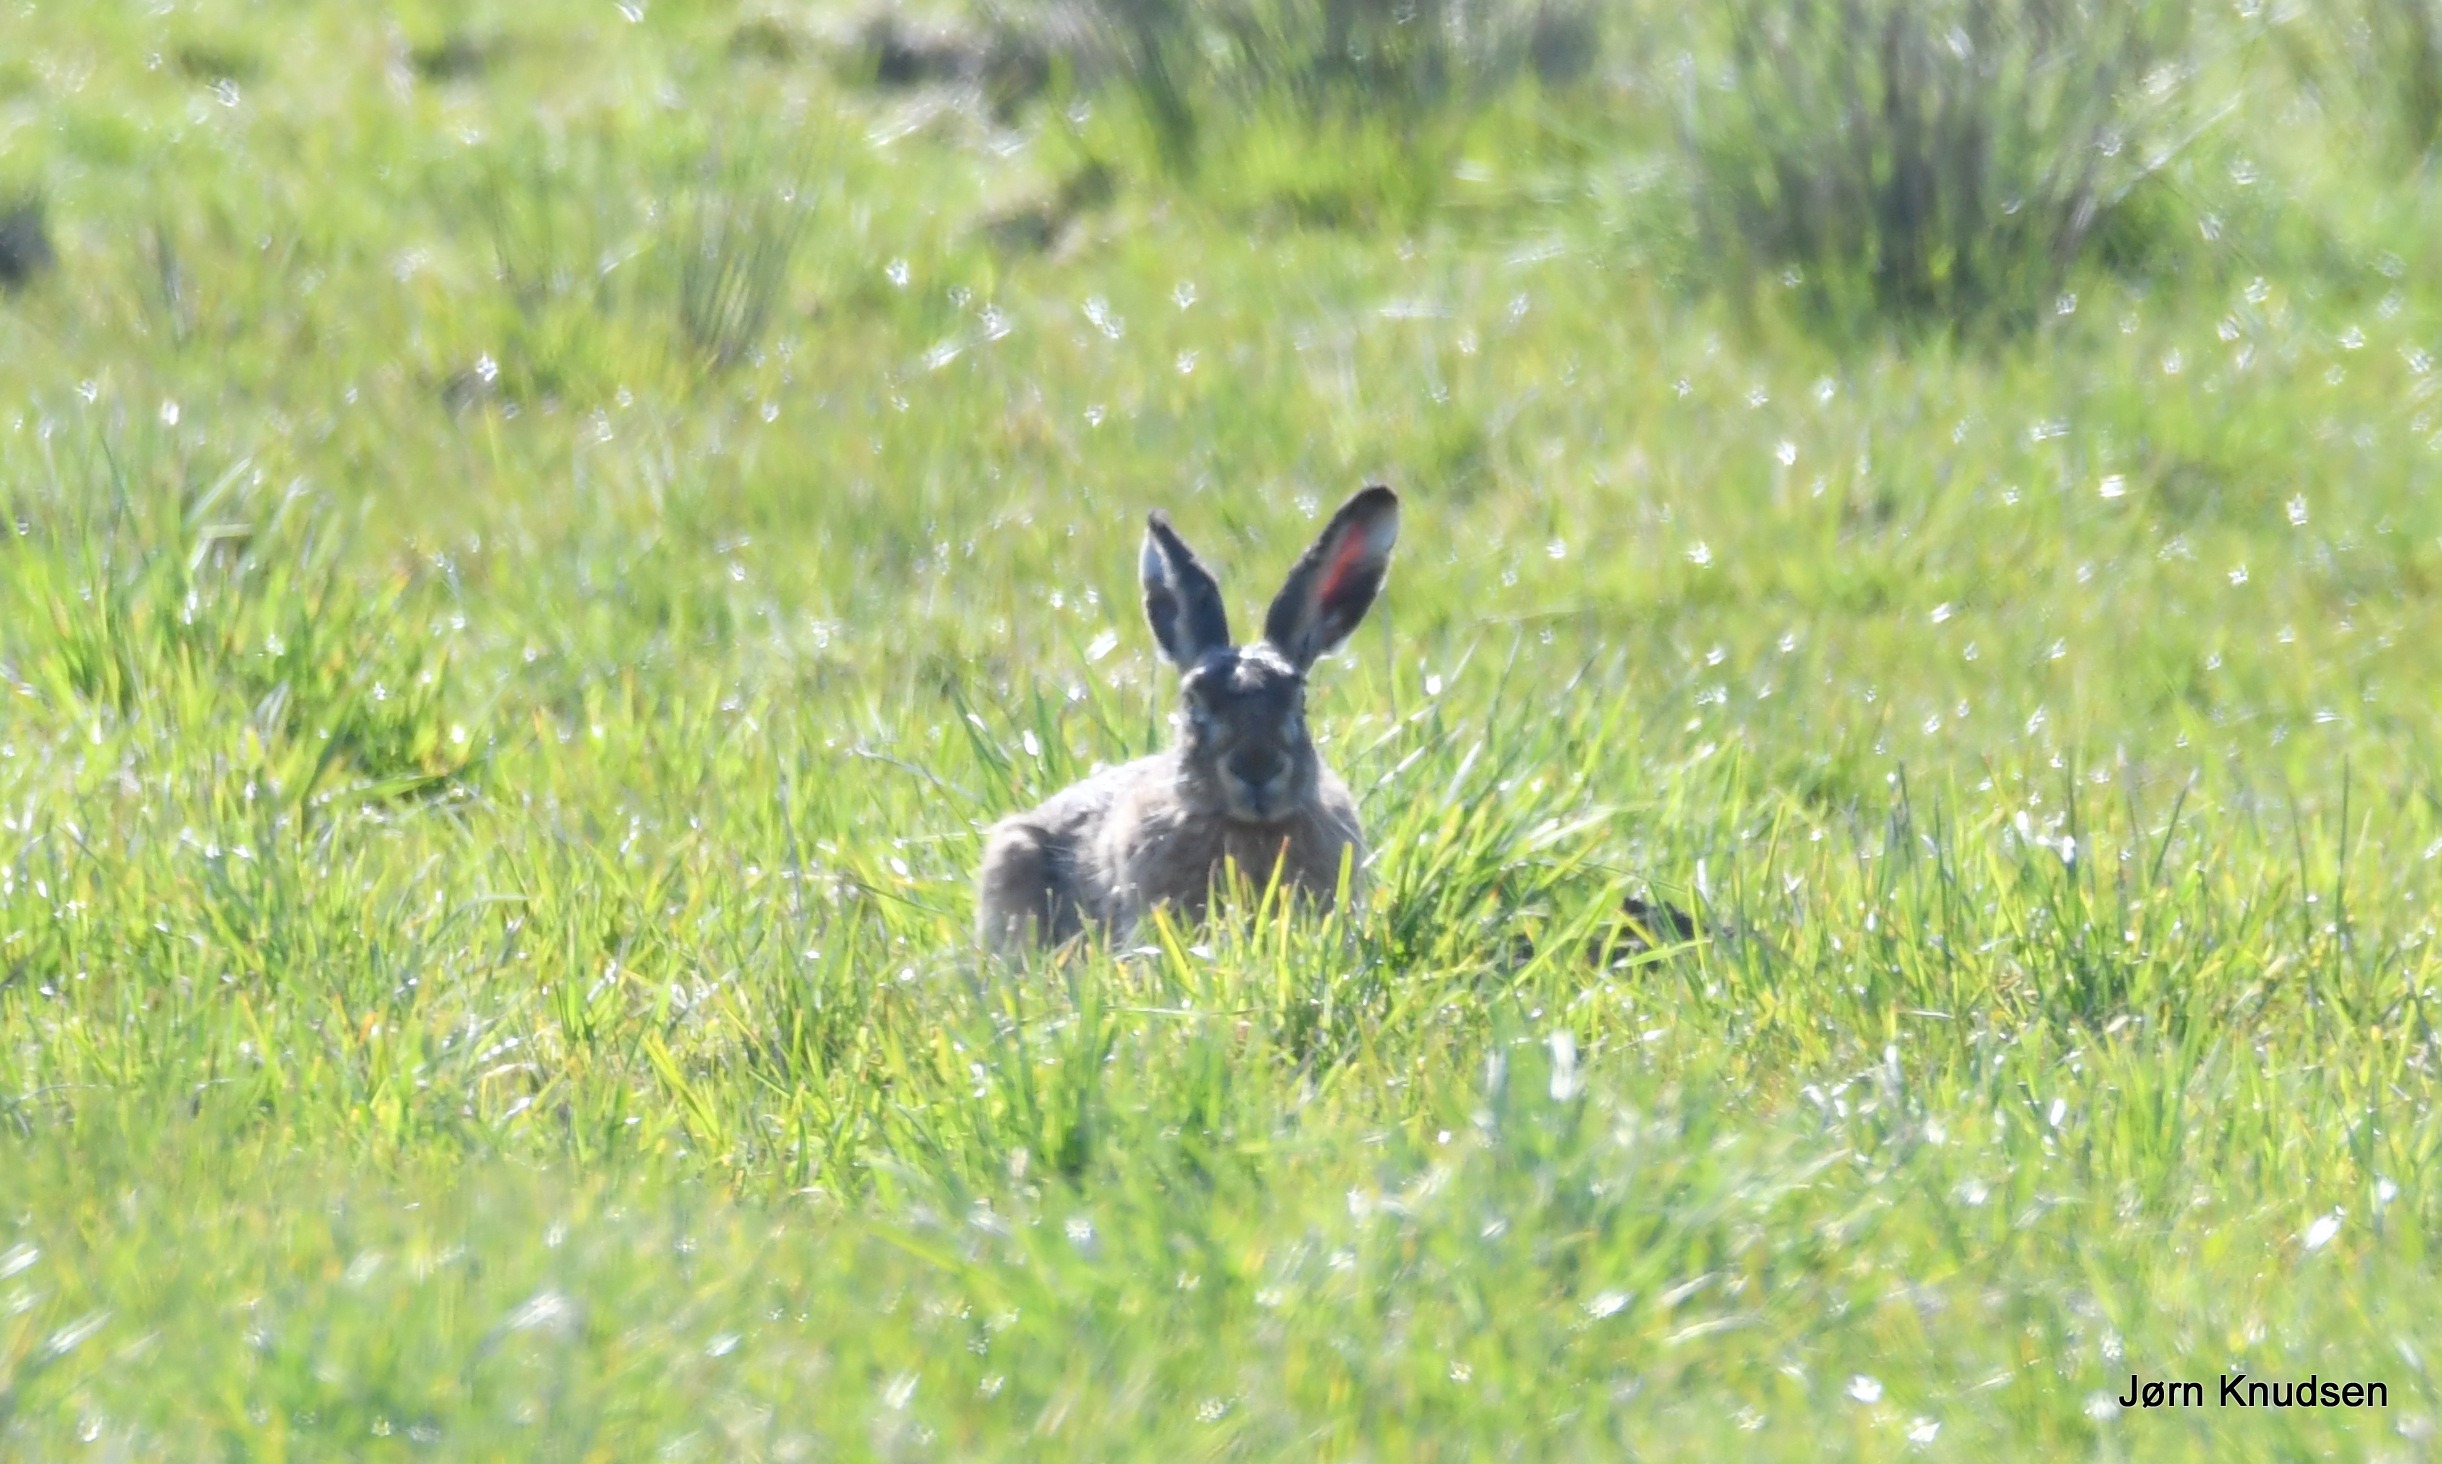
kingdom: Animalia
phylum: Chordata
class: Mammalia
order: Lagomorpha
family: Leporidae
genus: Lepus
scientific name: Lepus europaeus
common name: Hare
